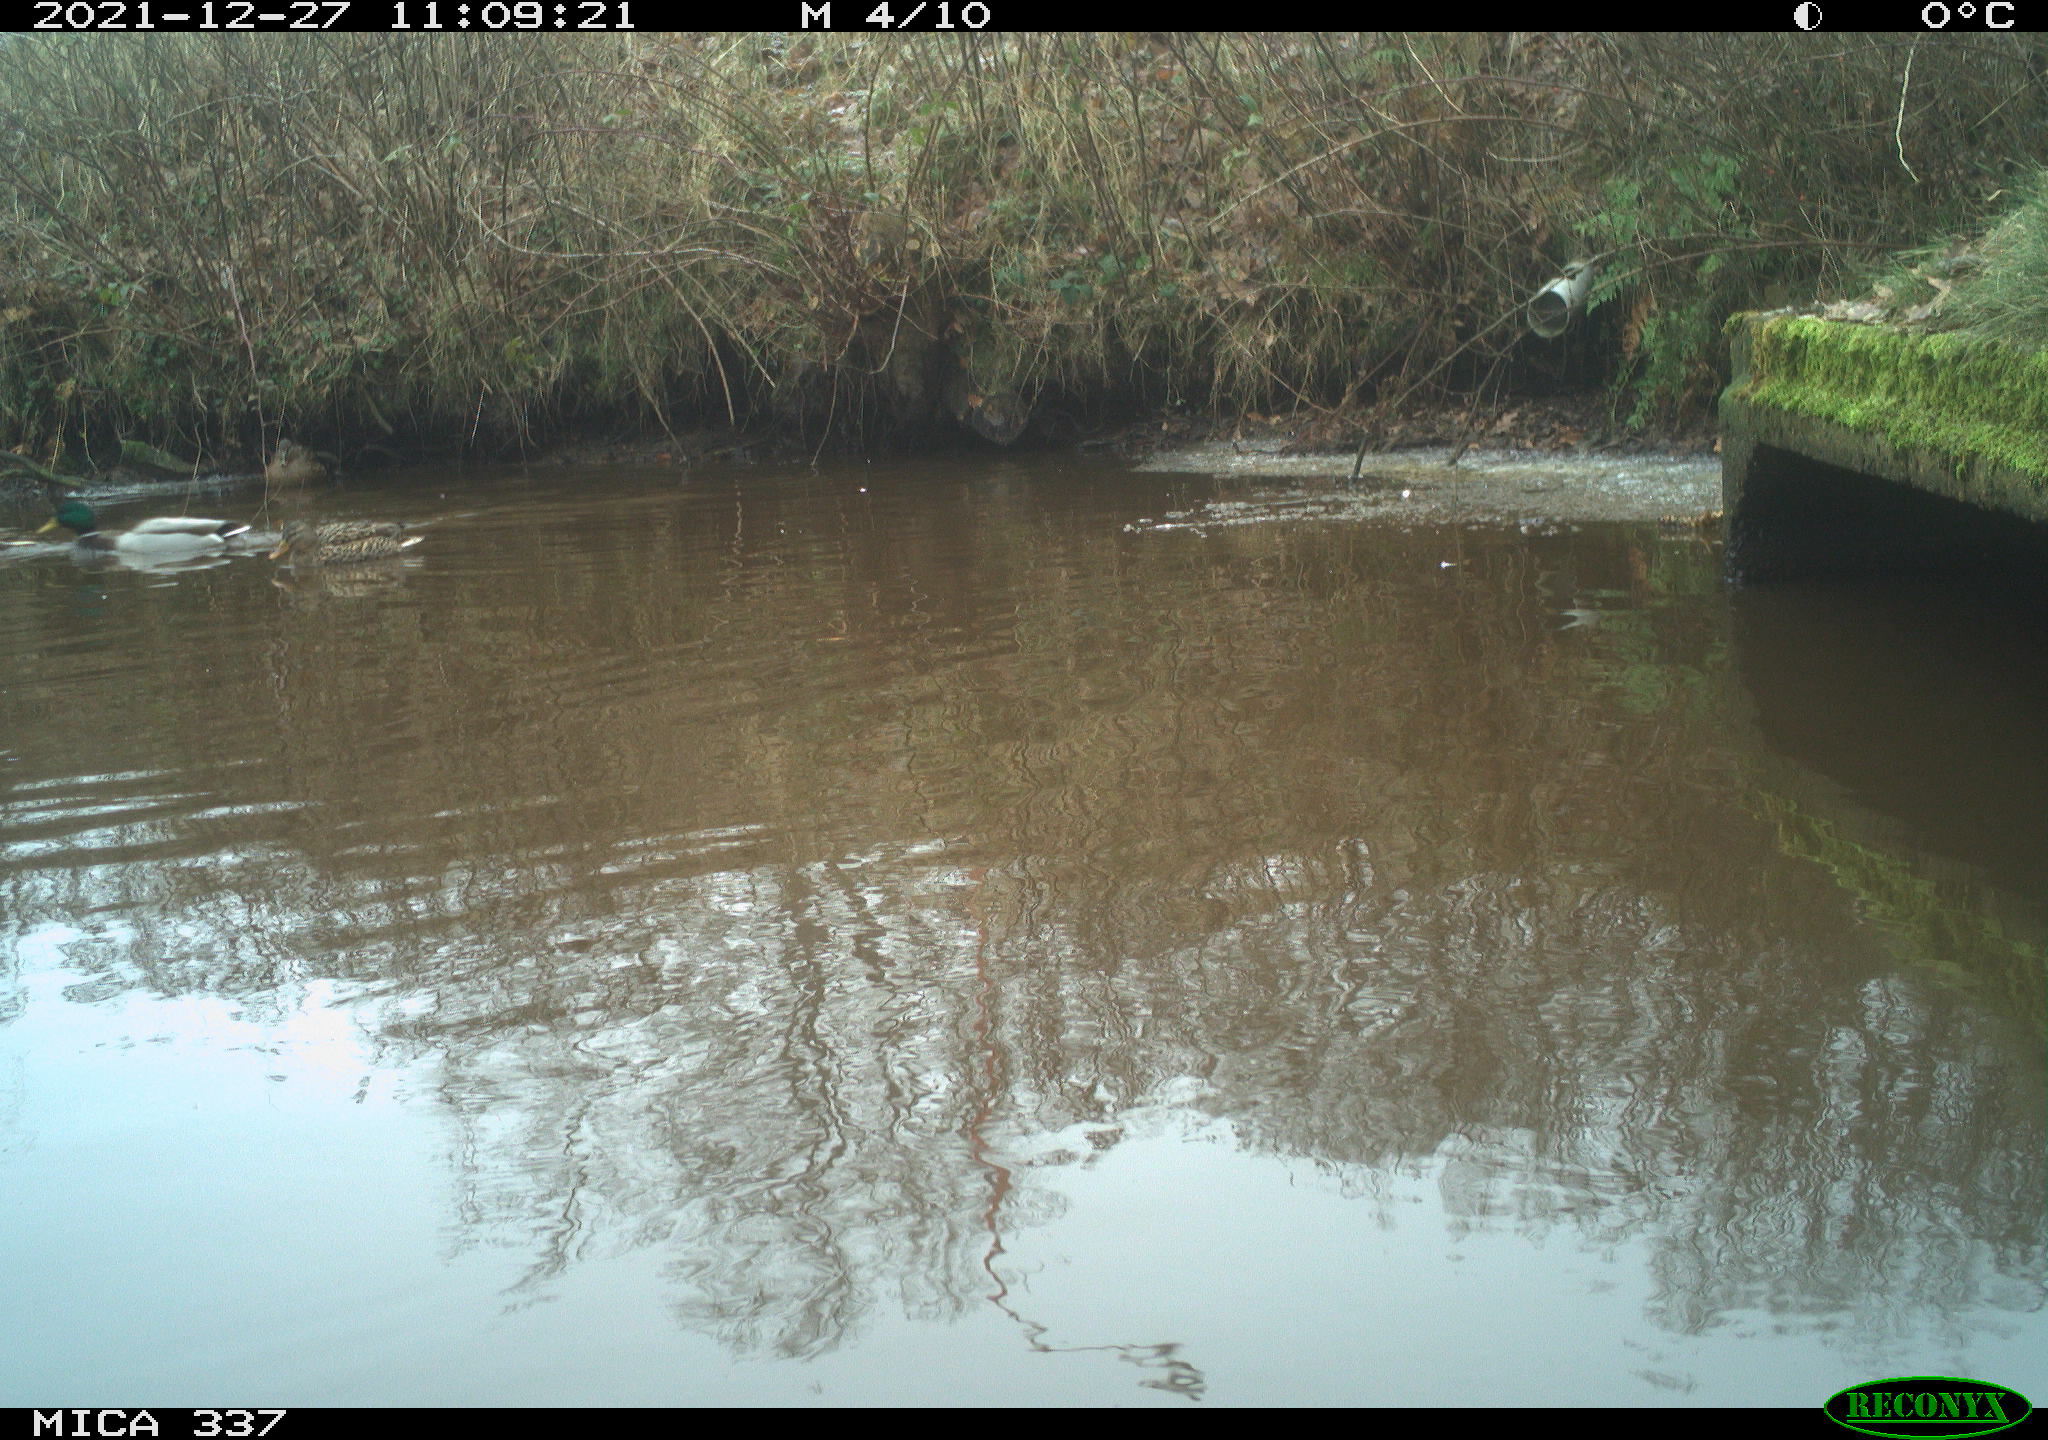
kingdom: Animalia
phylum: Chordata
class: Aves
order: Anseriformes
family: Anatidae
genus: Anas
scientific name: Anas platyrhynchos
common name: Mallard
